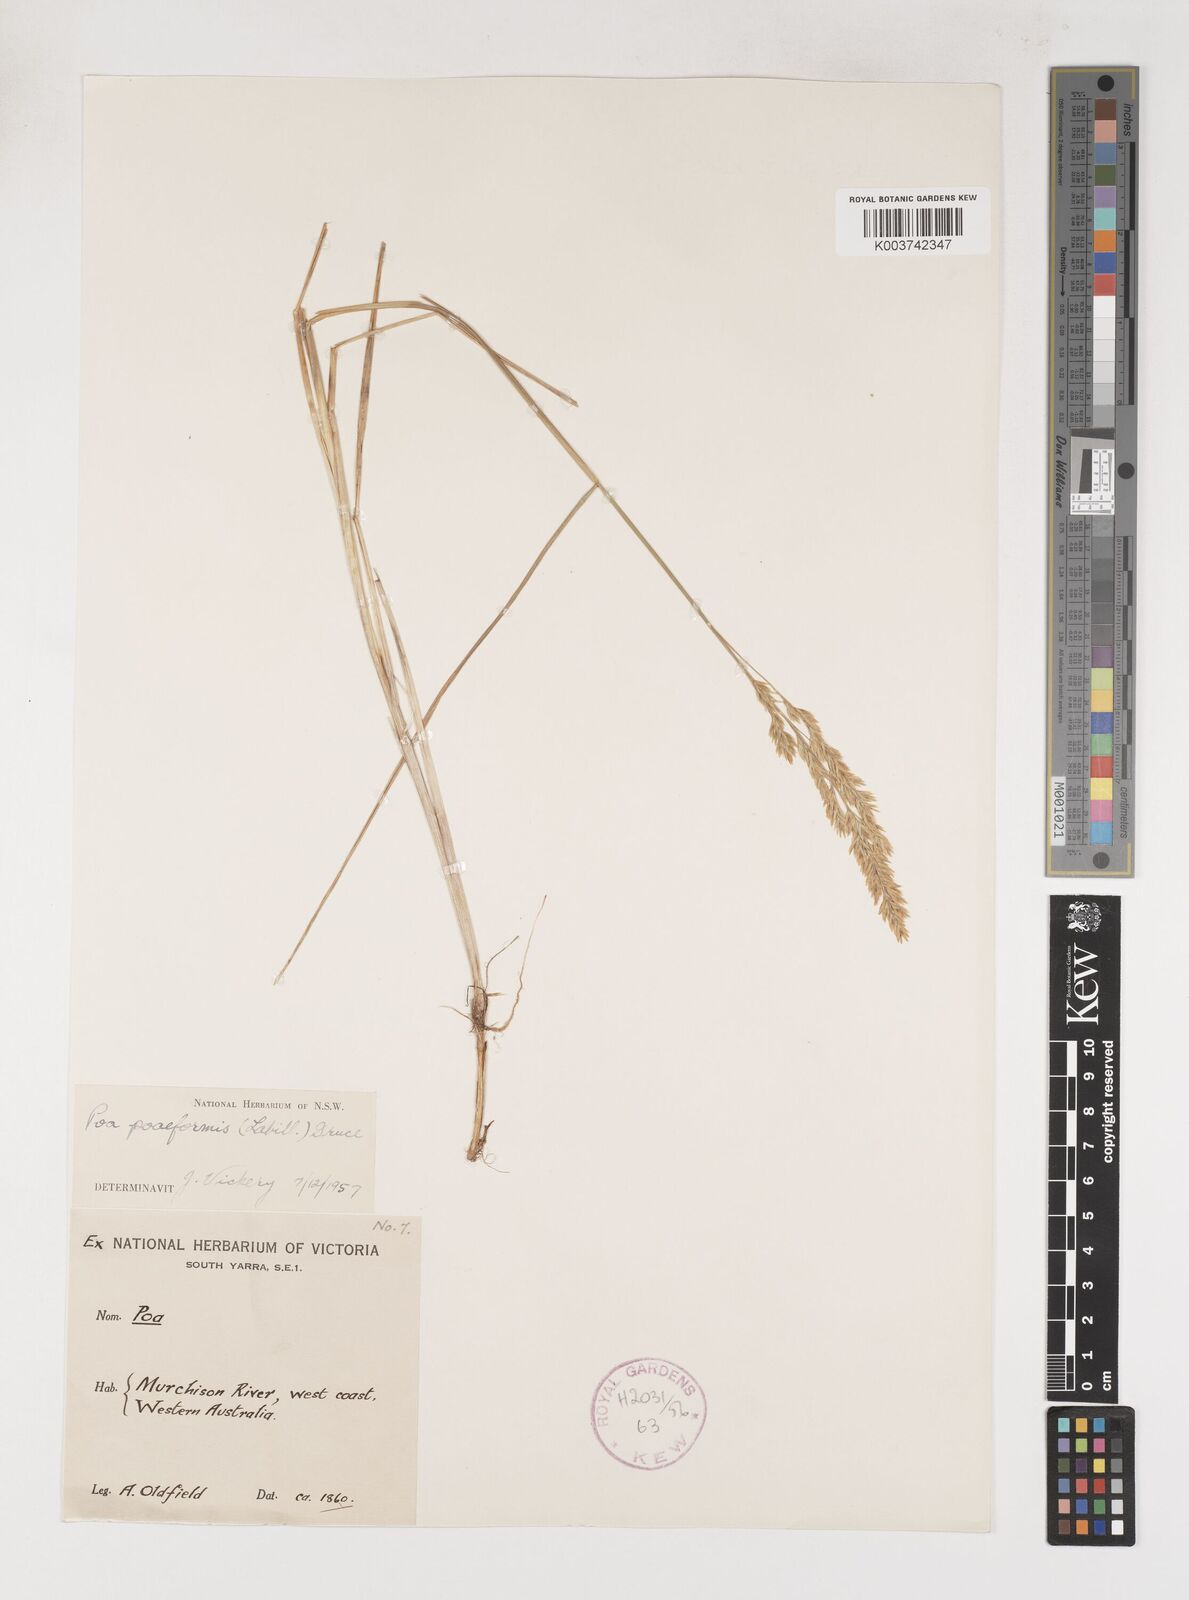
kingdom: Plantae
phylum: Tracheophyta
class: Liliopsida
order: Poales
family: Poaceae
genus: Poa
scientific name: Poa poiformis
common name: Tussock poa
